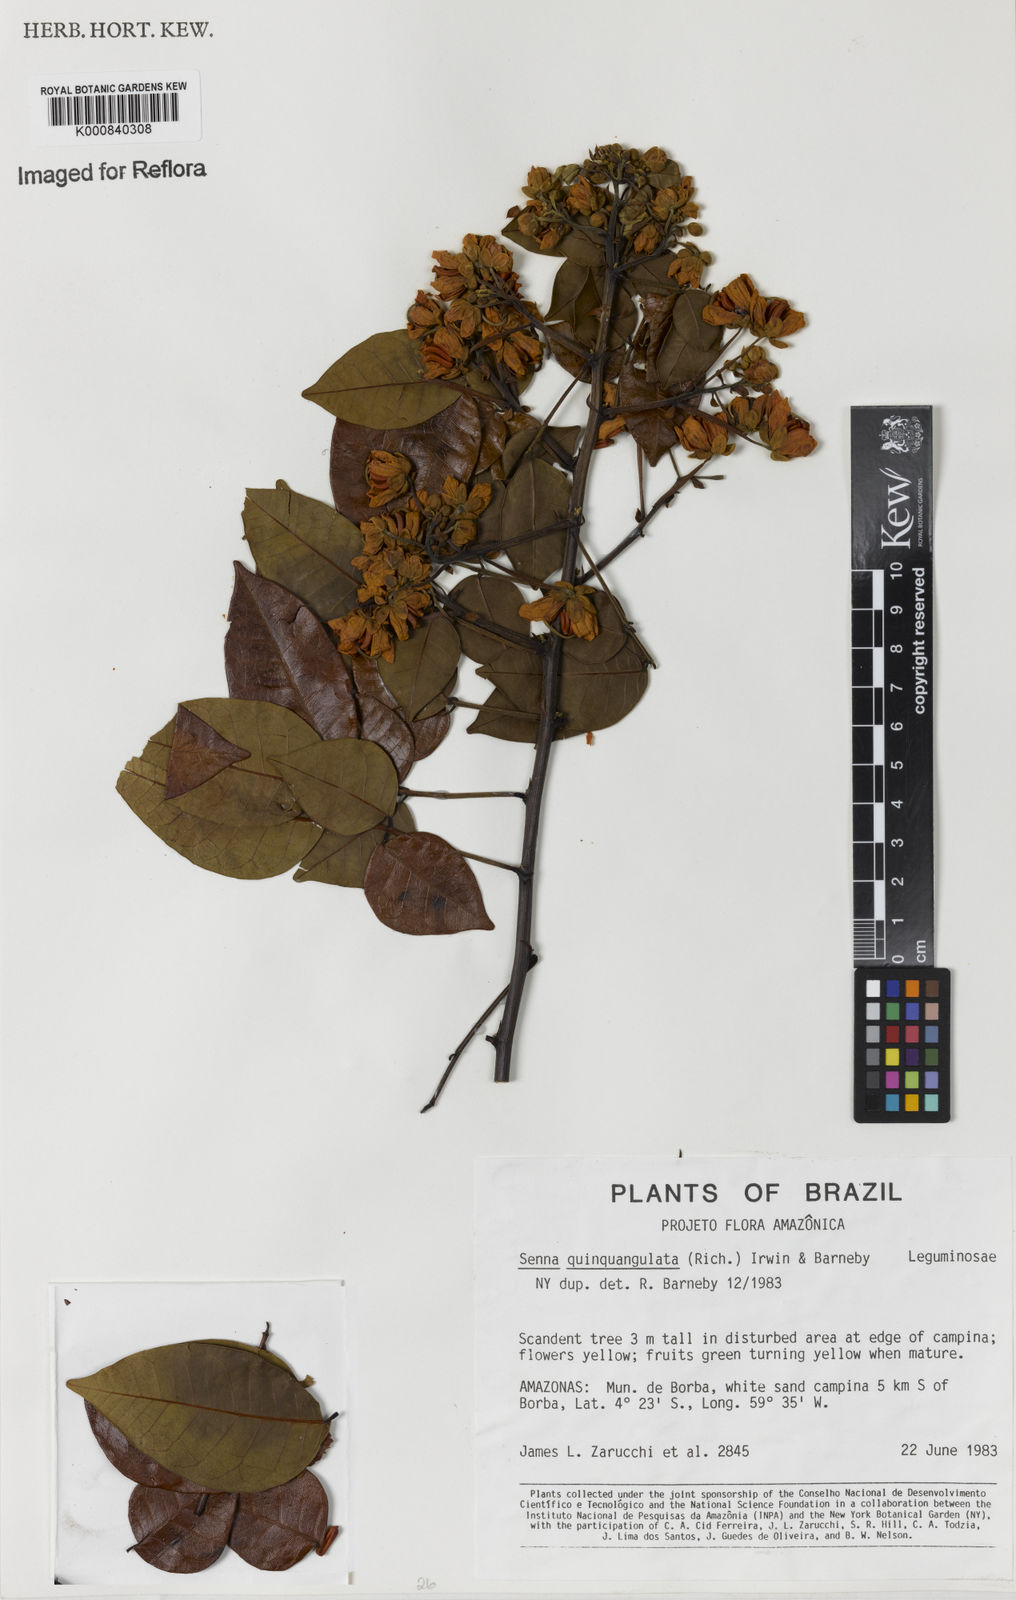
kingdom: Plantae
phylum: Tracheophyta
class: Magnoliopsida
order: Fabales
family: Fabaceae
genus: Senna
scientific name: Senna
